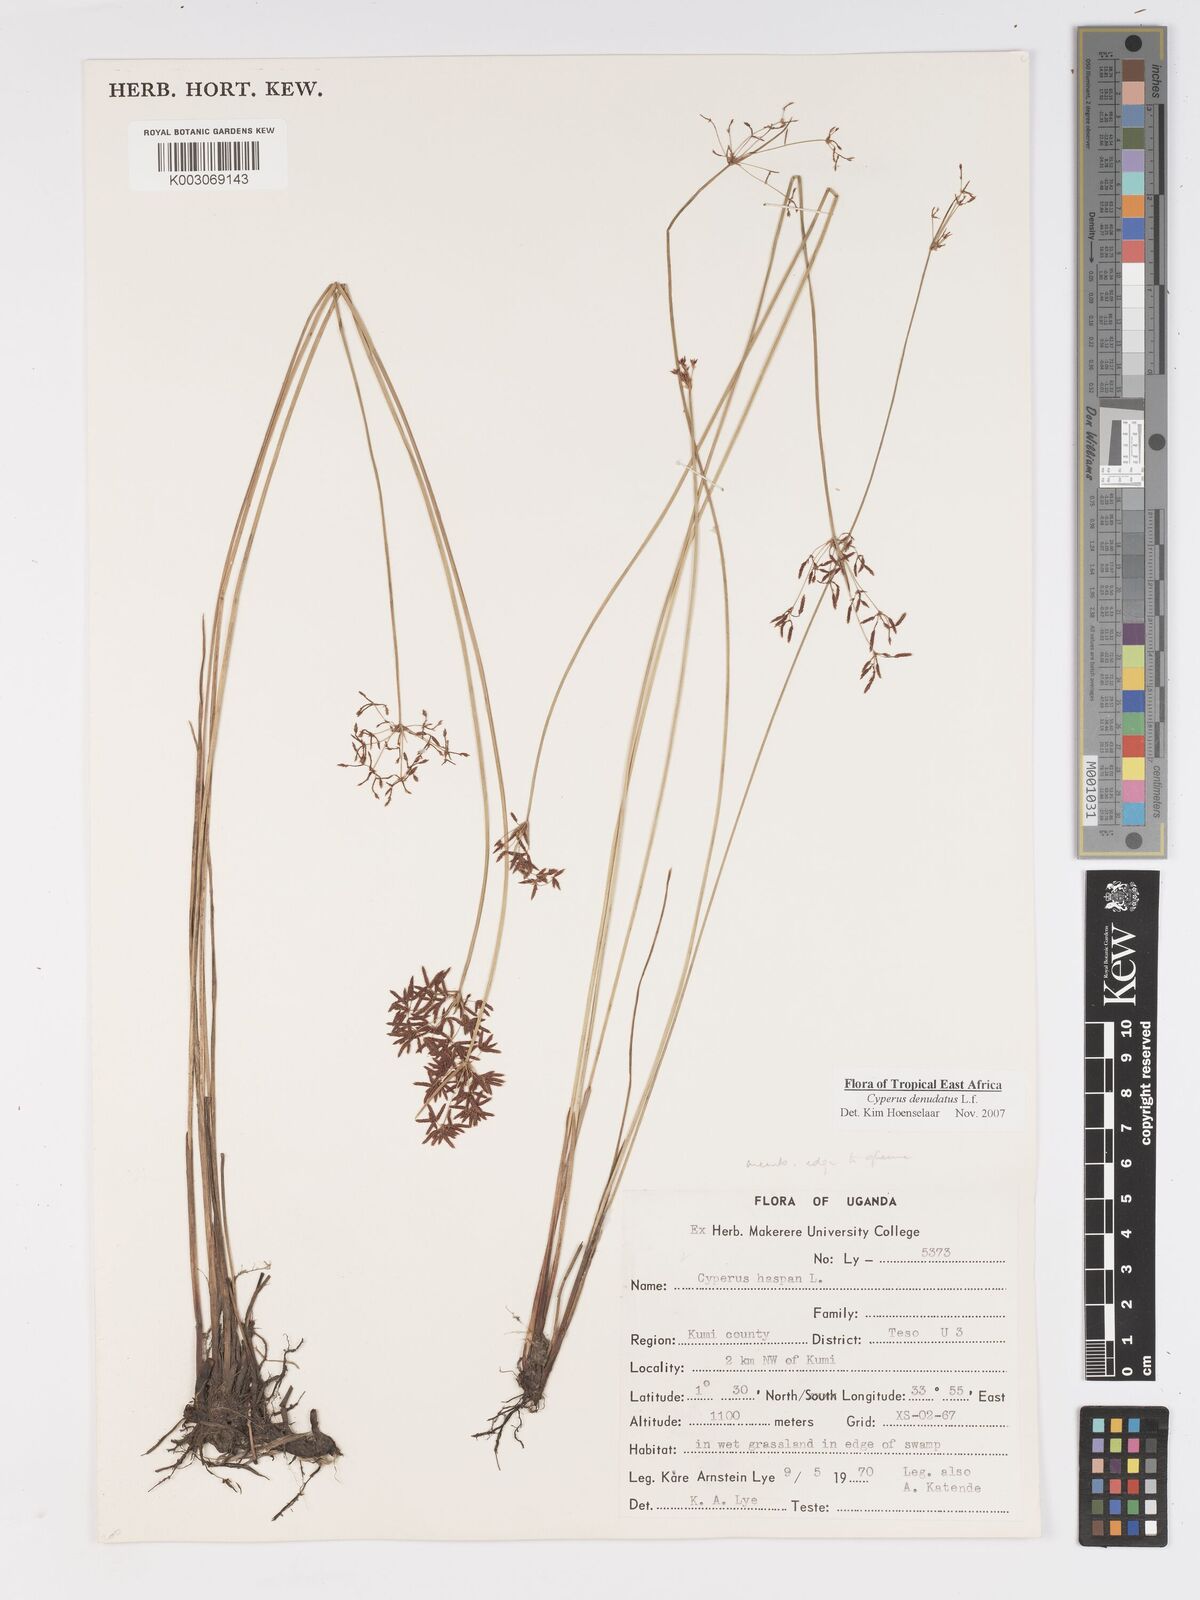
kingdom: Plantae
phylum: Tracheophyta
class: Liliopsida
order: Poales
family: Cyperaceae
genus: Cyperus
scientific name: Cyperus denudatus
